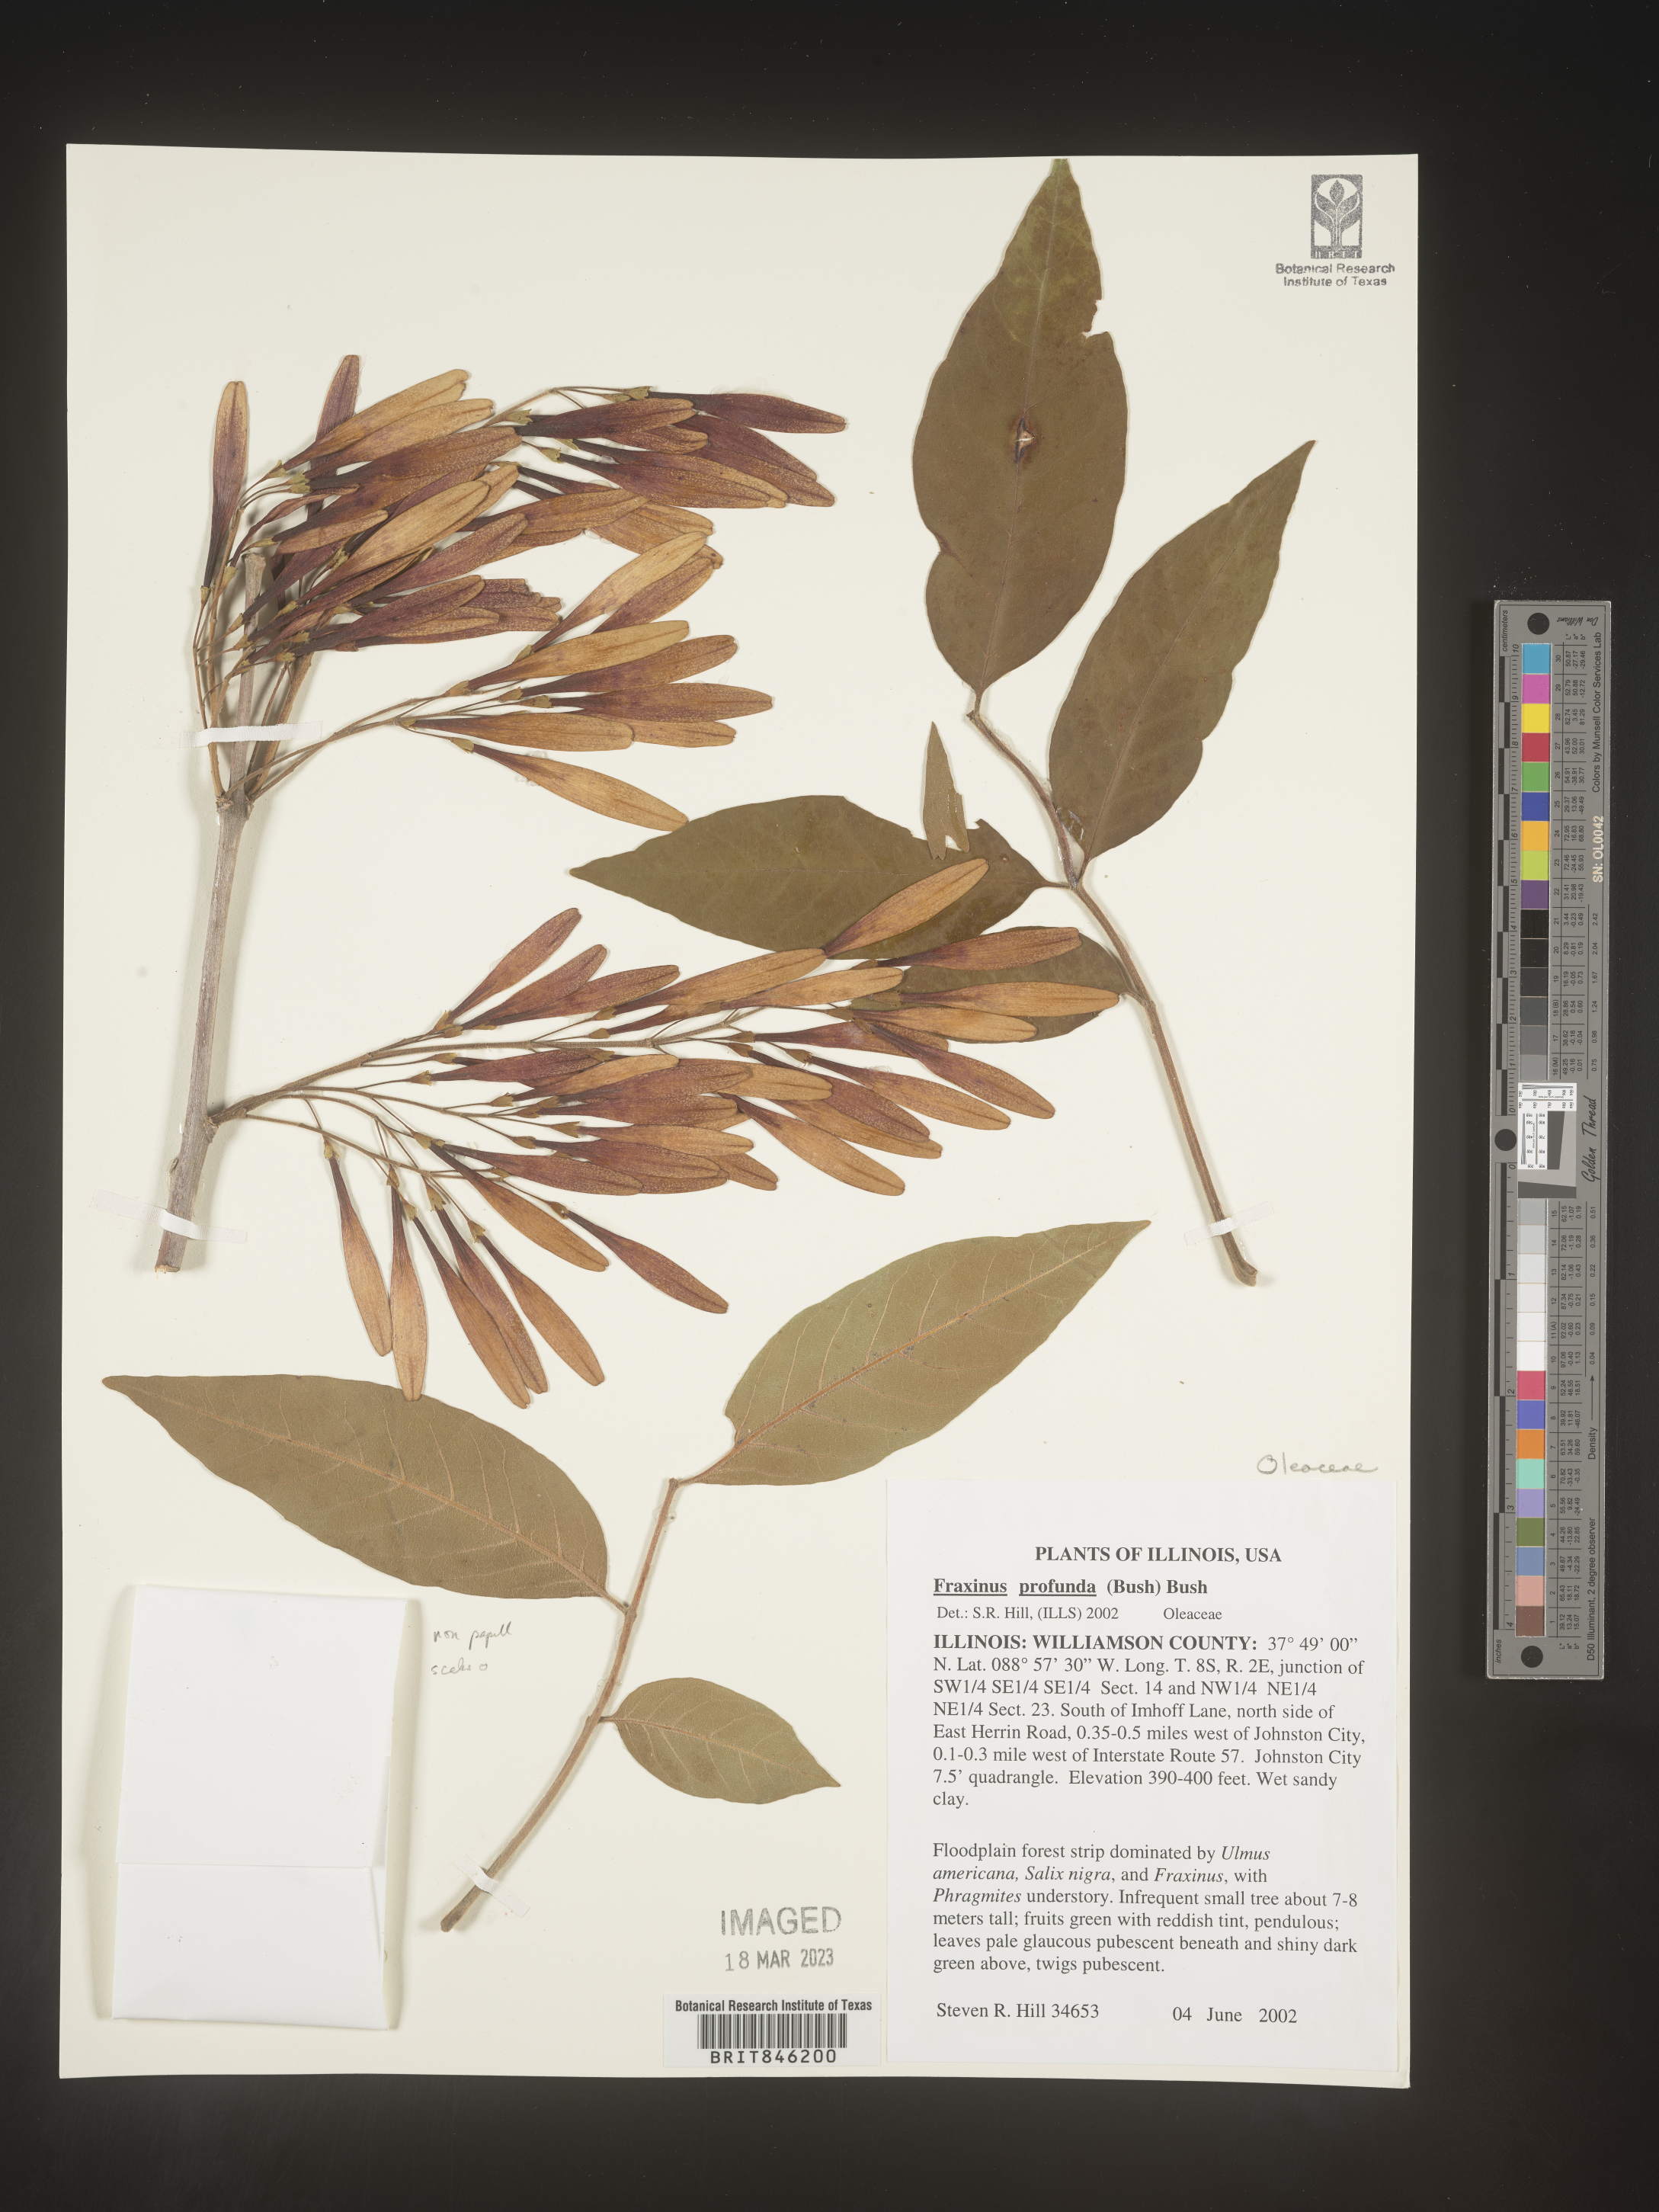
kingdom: Plantae
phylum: Tracheophyta
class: Magnoliopsida
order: Lamiales
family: Oleaceae
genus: Fraxinus
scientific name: Fraxinus profunda
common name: Pumpkin ash
